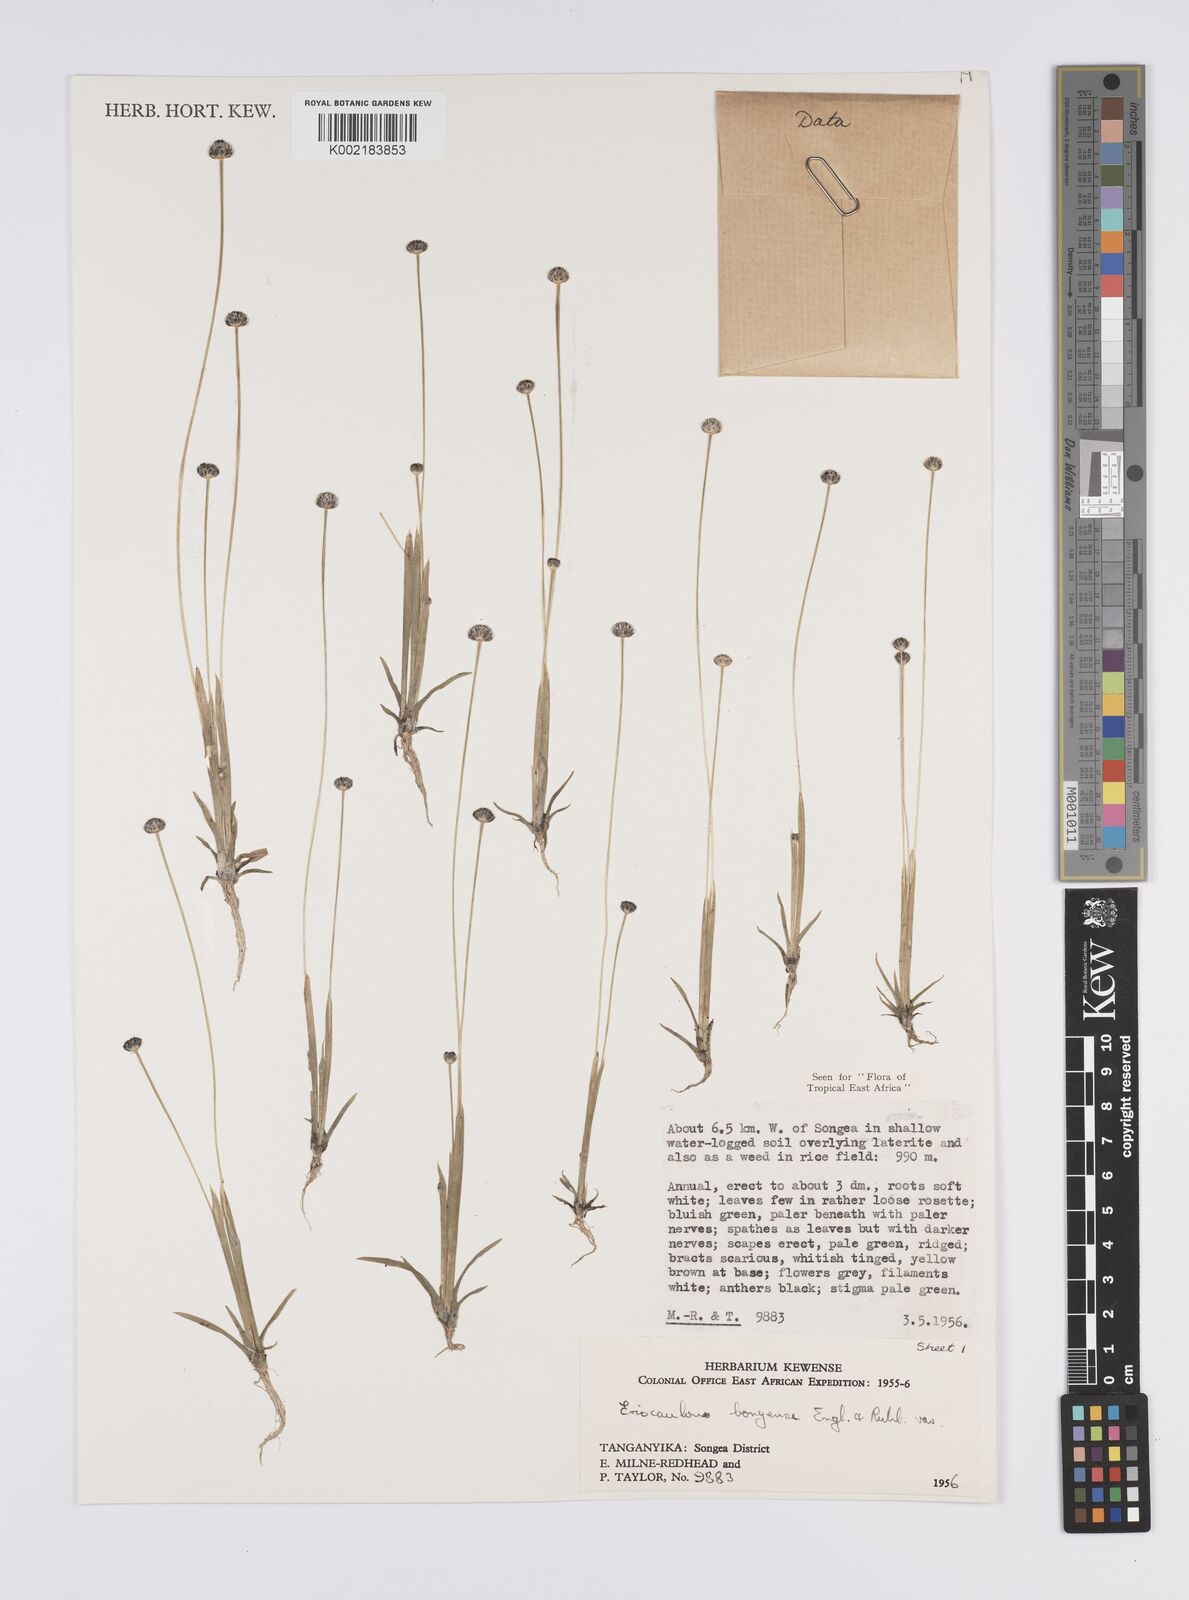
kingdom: Plantae
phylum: Tracheophyta
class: Liliopsida
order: Poales
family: Eriocaulaceae
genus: Eriocaulon
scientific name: Eriocaulon bongense
